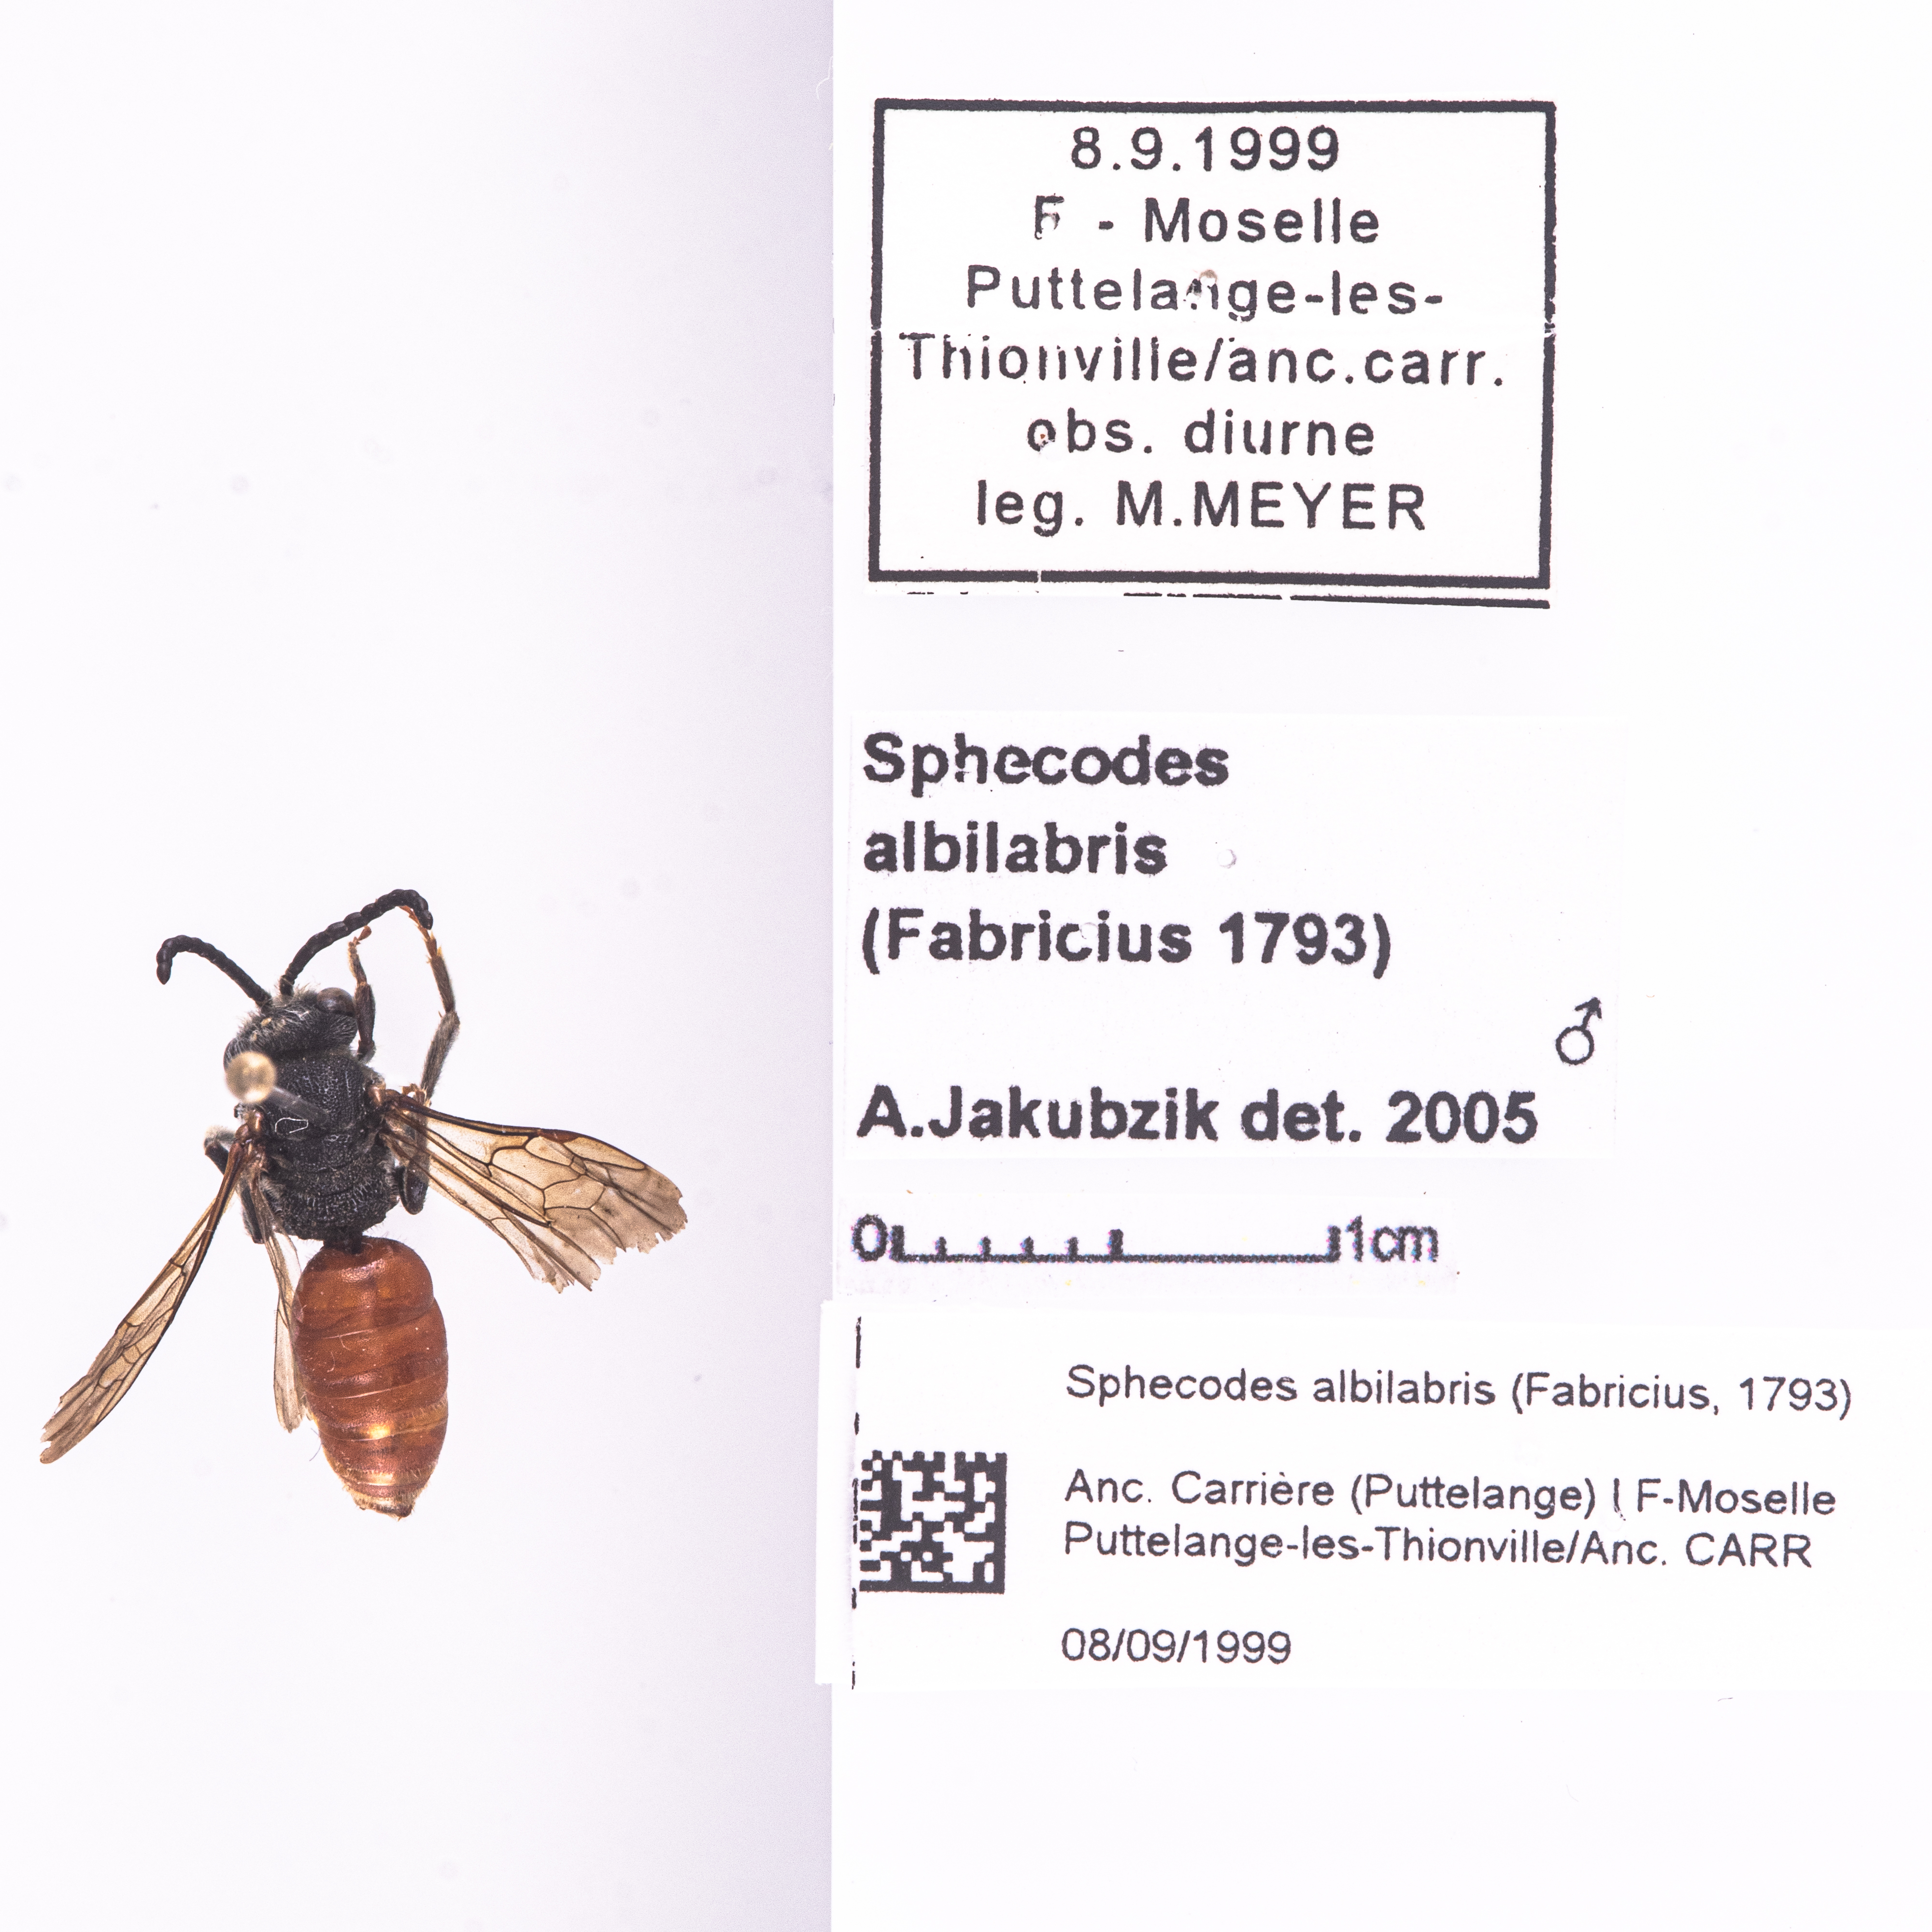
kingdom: Animalia
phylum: Arthropoda
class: Insecta
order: Hymenoptera
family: Halictidae
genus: Sphecodes
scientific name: Sphecodes albilabris
